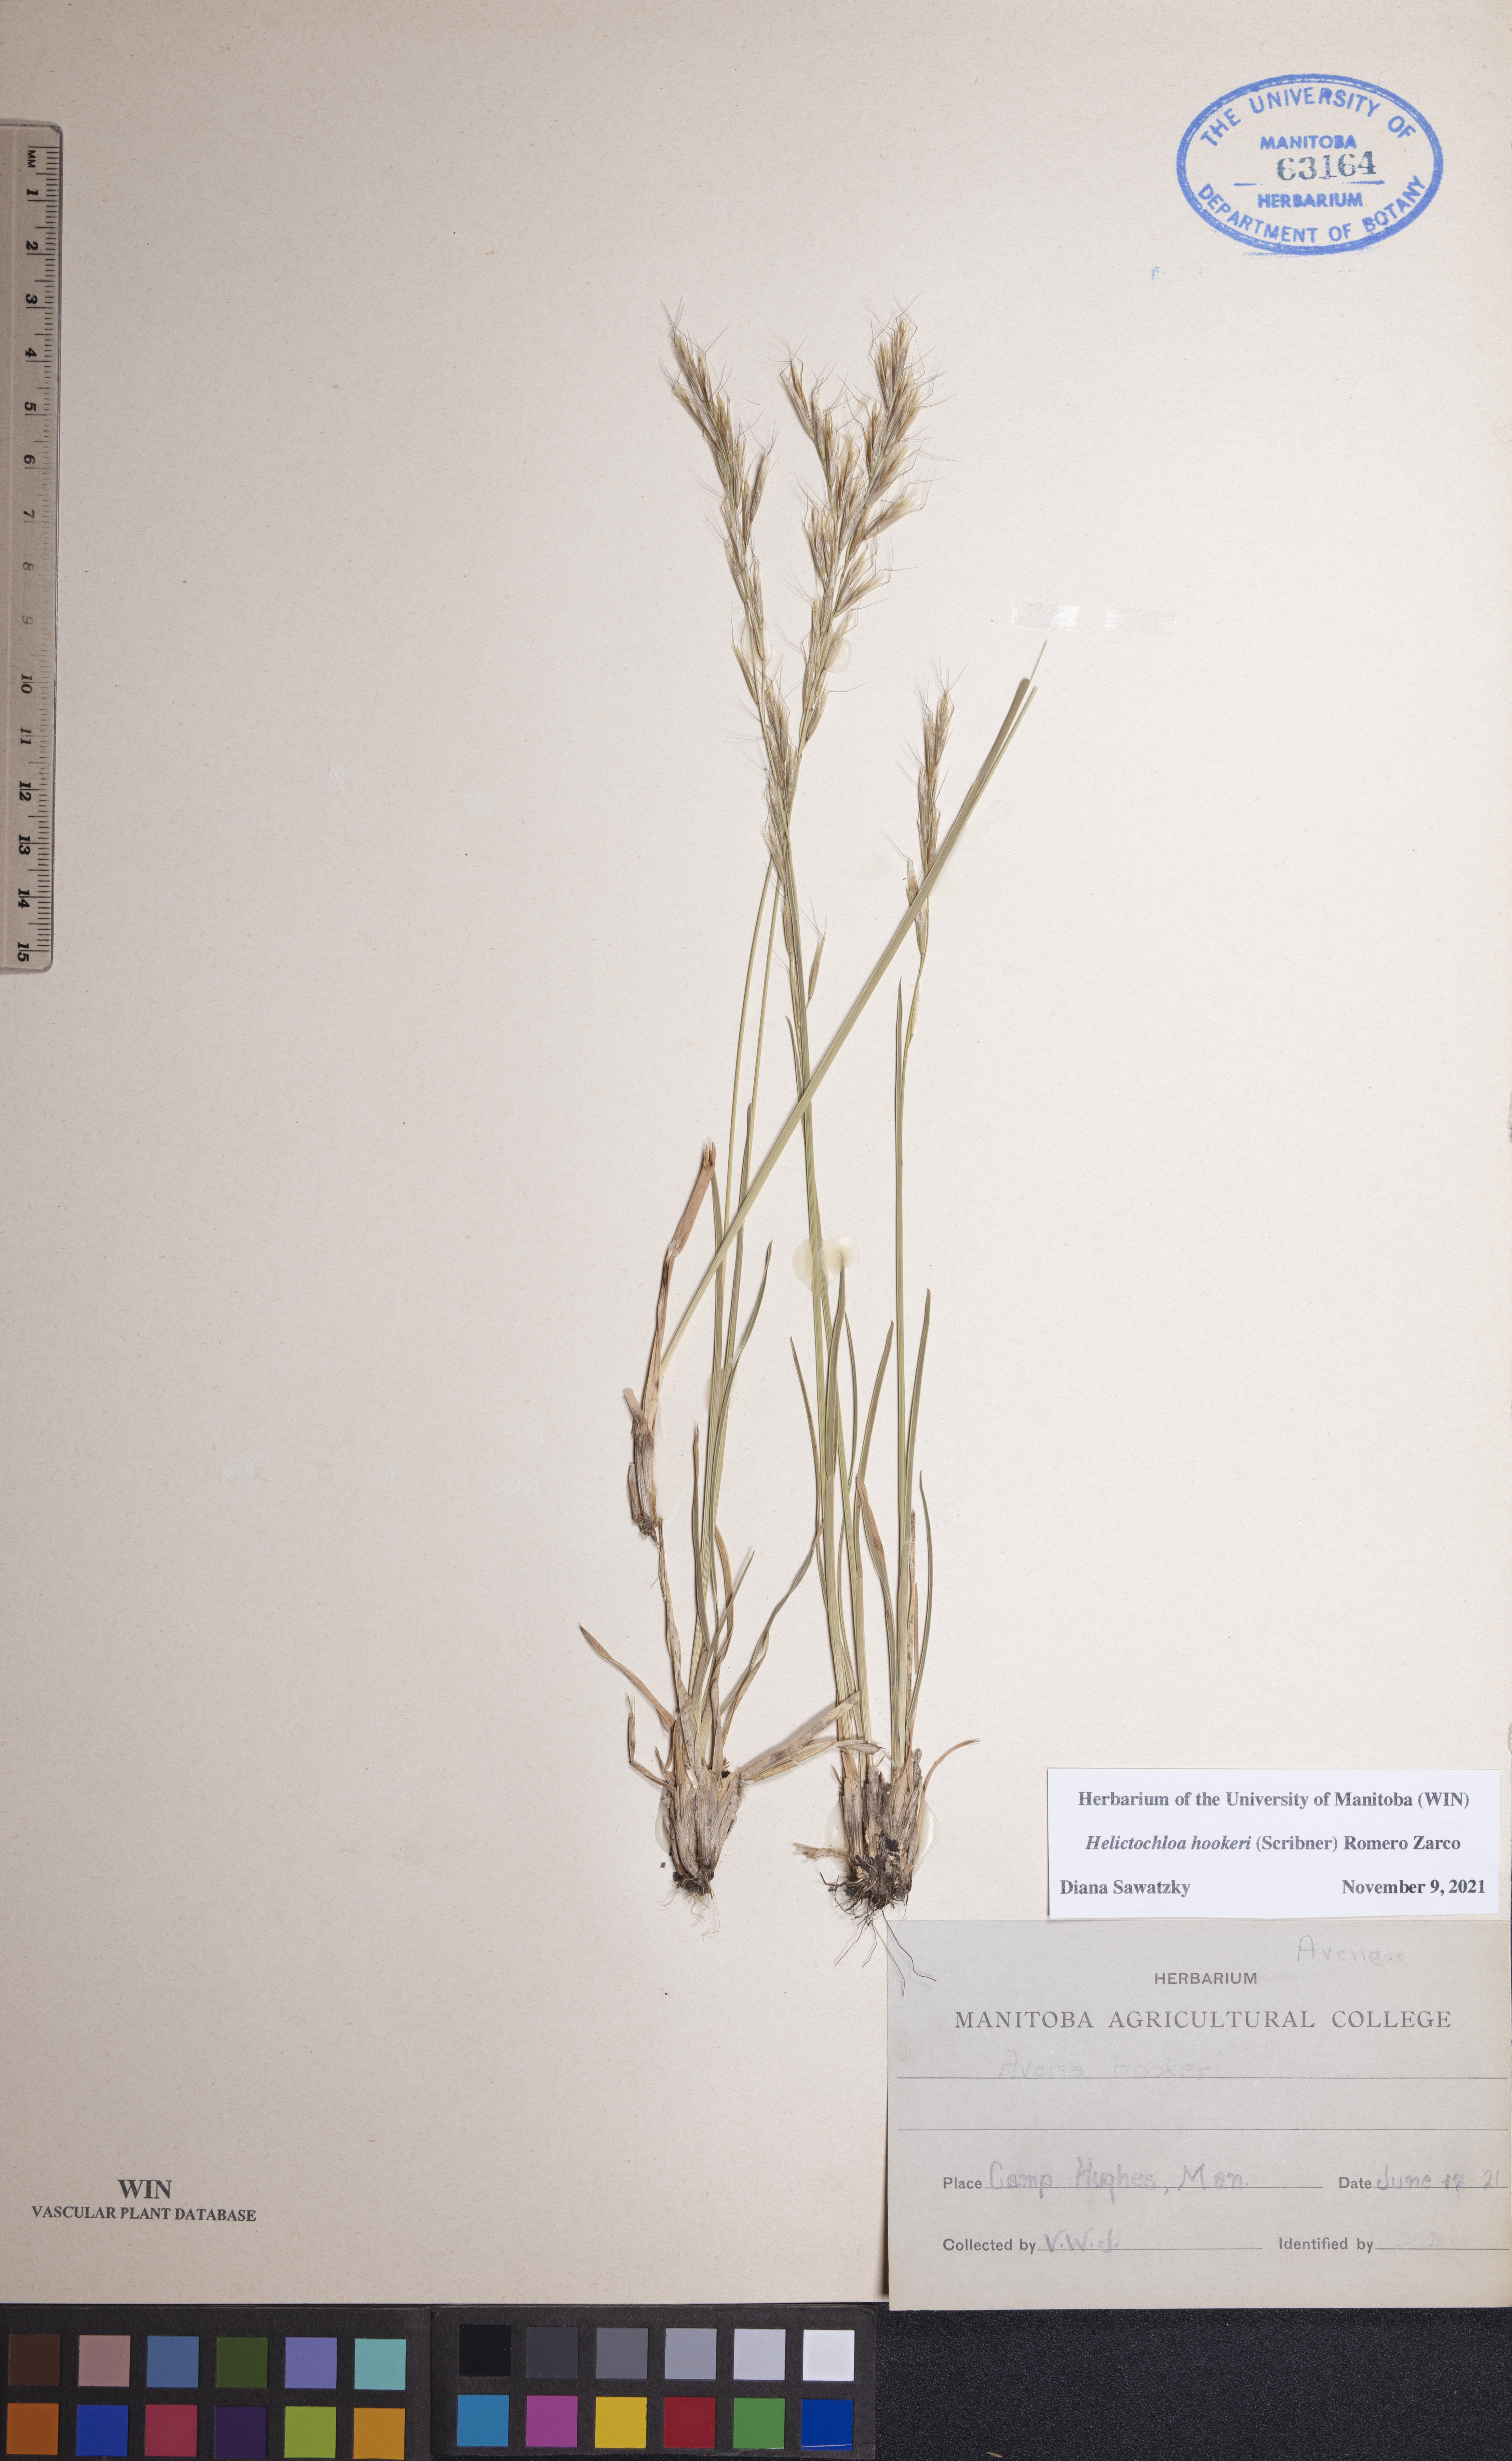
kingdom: Plantae
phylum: Tracheophyta
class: Liliopsida
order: Poales
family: Poaceae
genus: Helictochloa
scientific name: Helictochloa hookeri
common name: Hooker's alpine oatgrass
